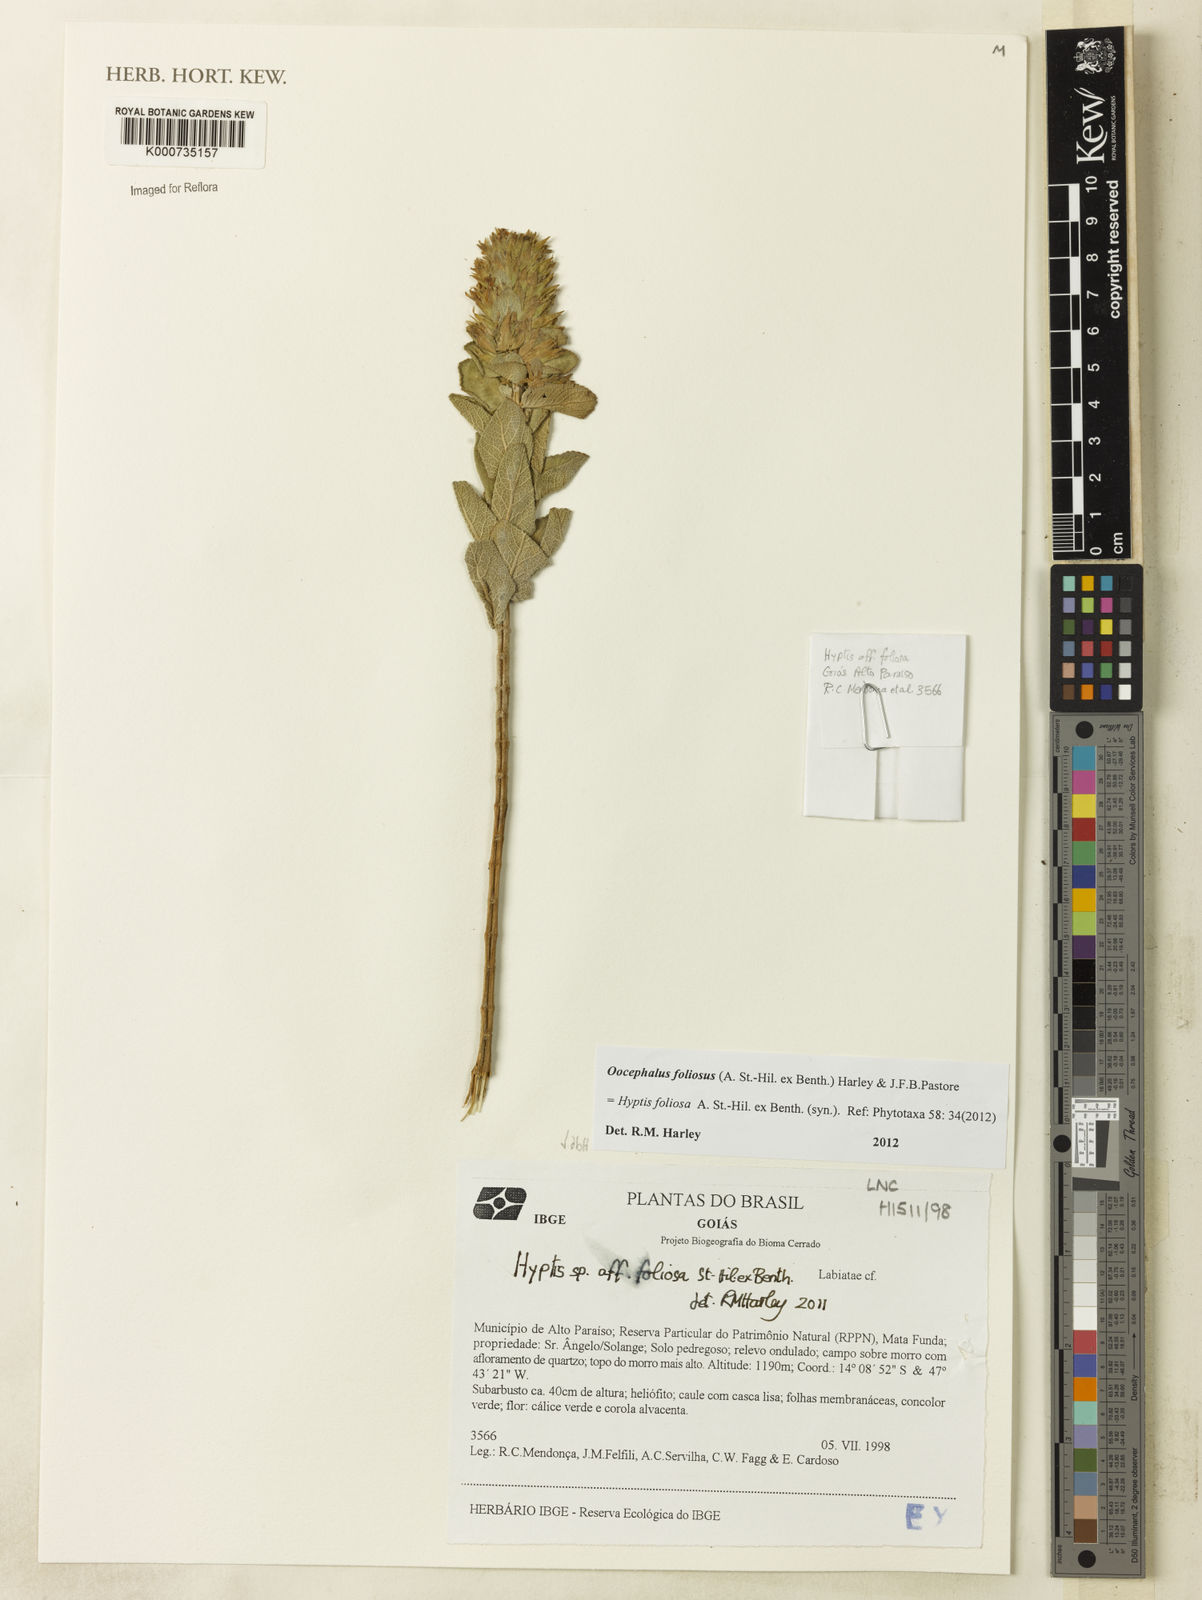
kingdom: Plantae
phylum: Tracheophyta
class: Magnoliopsida
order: Lamiales
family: Lamiaceae
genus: Hyptis
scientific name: Hyptis
